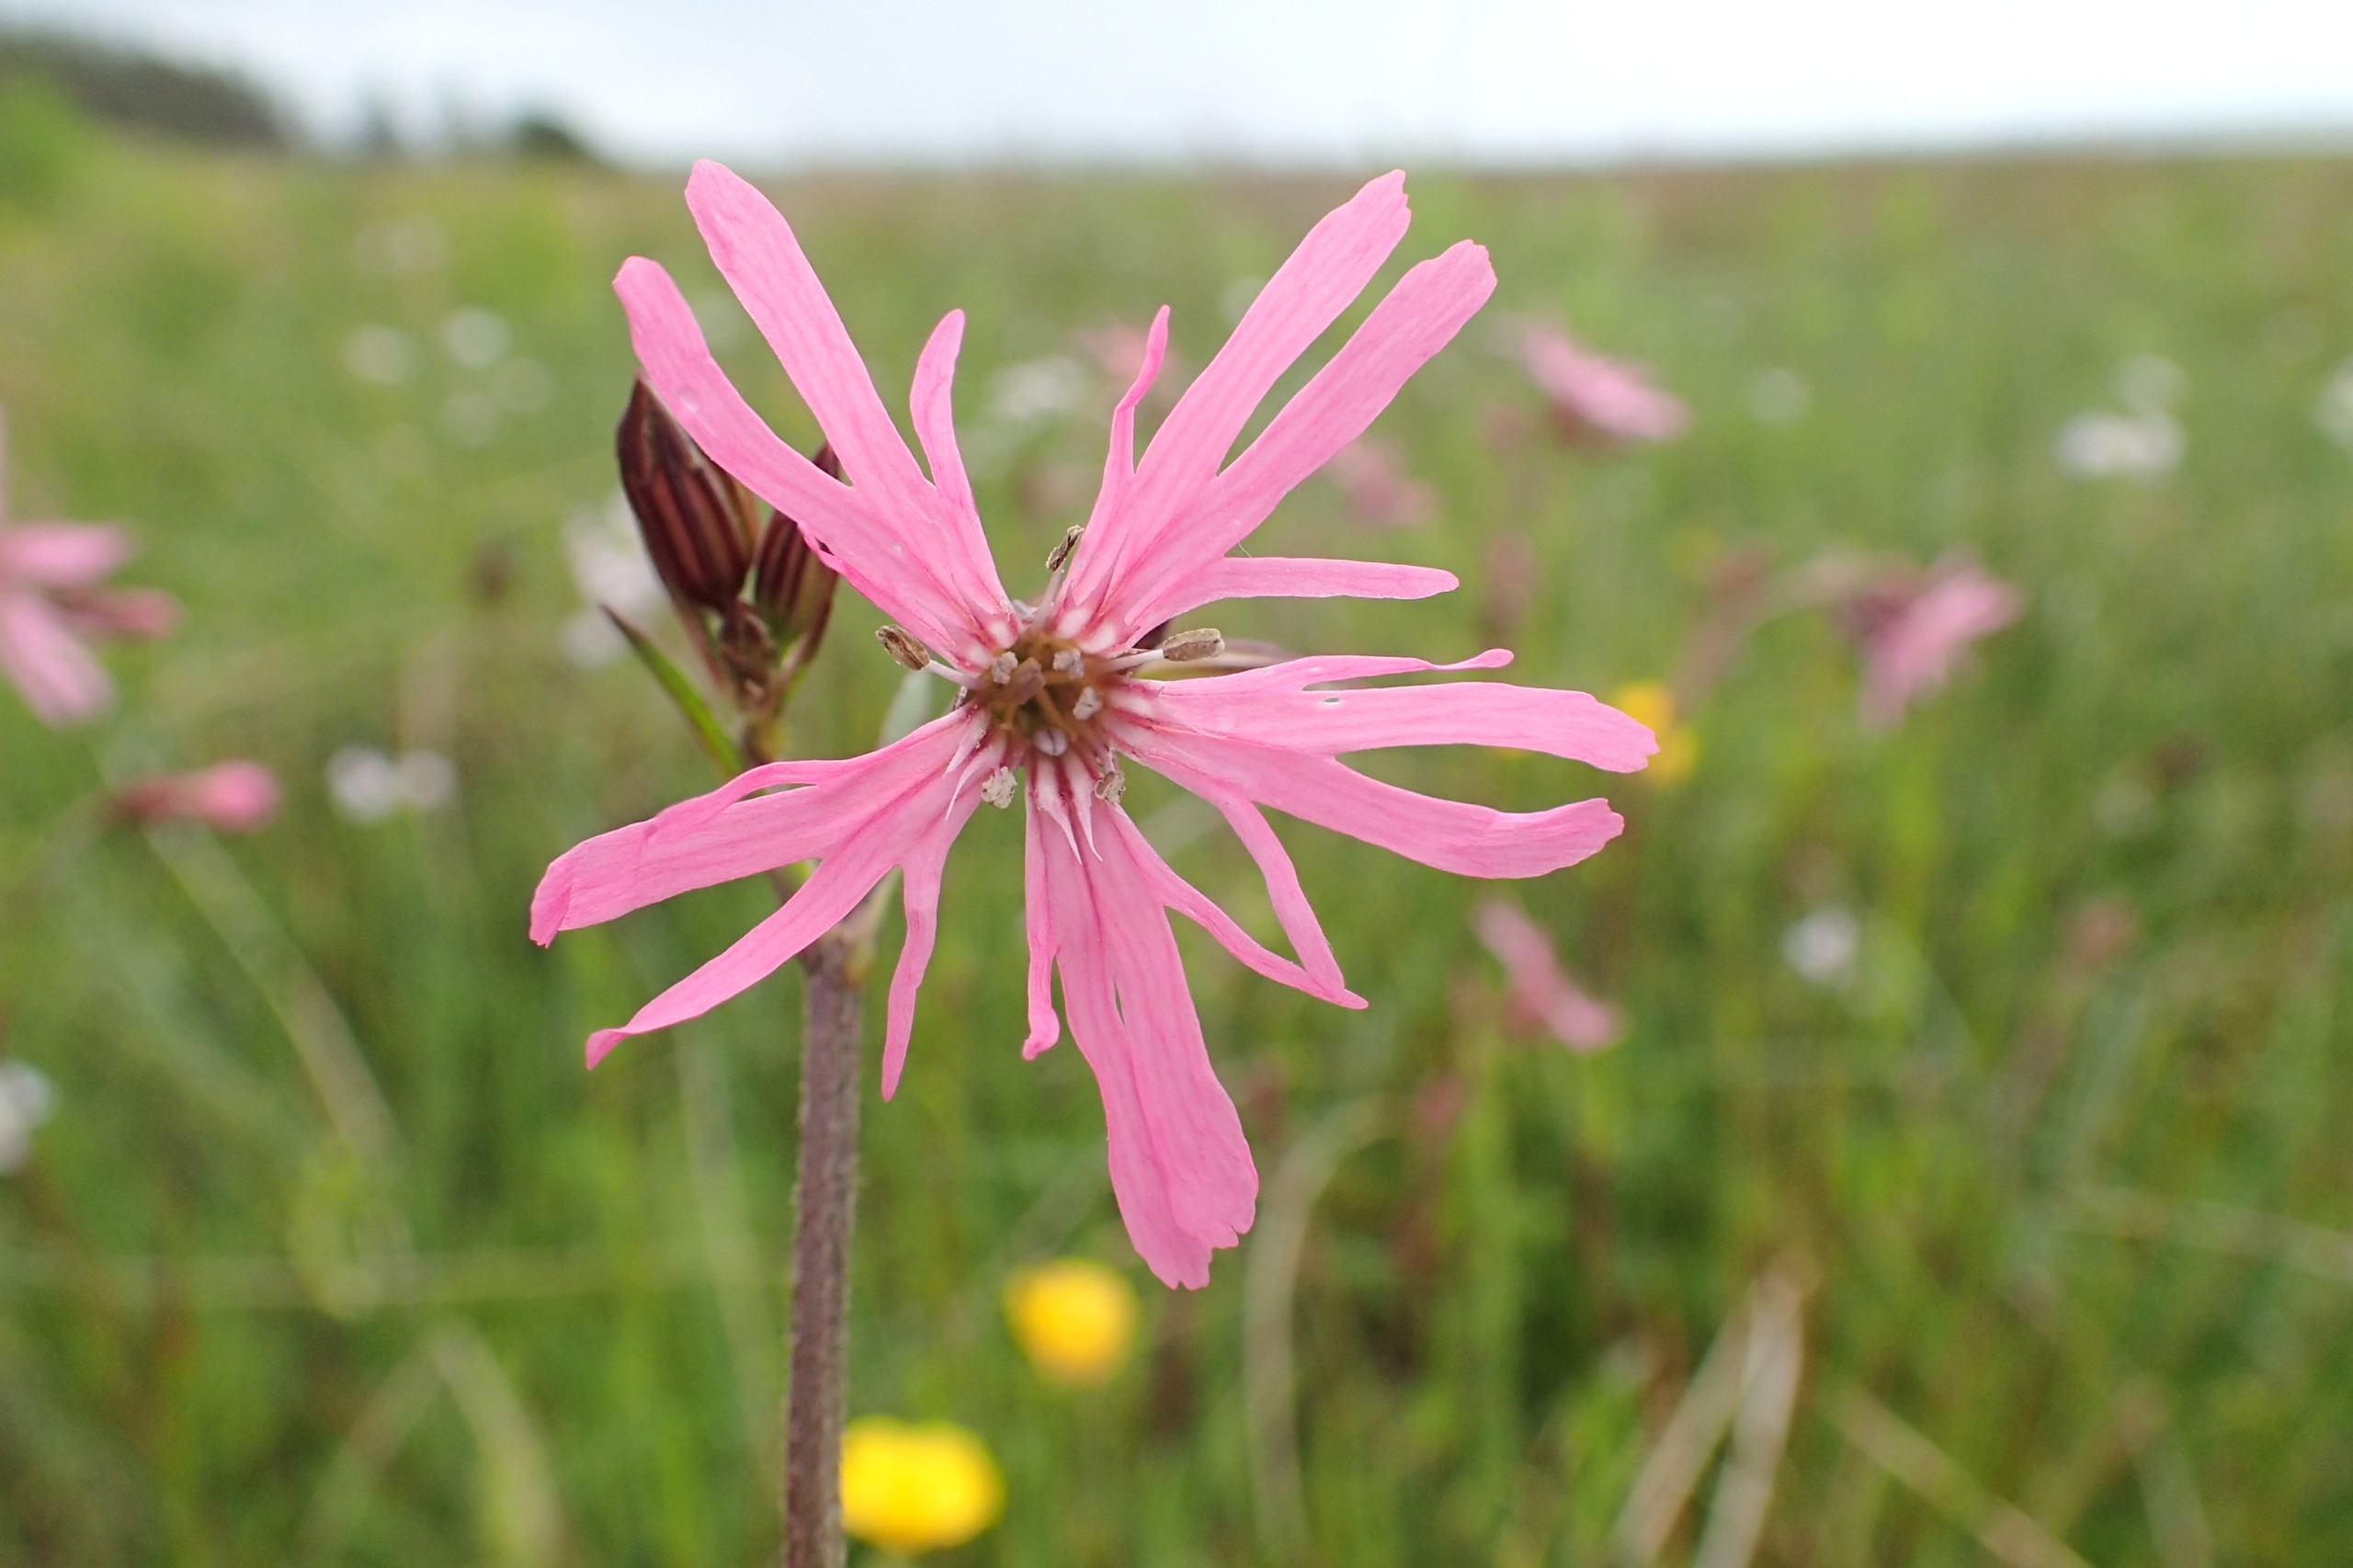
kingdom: Plantae
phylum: Tracheophyta
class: Magnoliopsida
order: Caryophyllales
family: Caryophyllaceae
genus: Silene
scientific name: Silene flos-cuculi
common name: Trævlekrone
